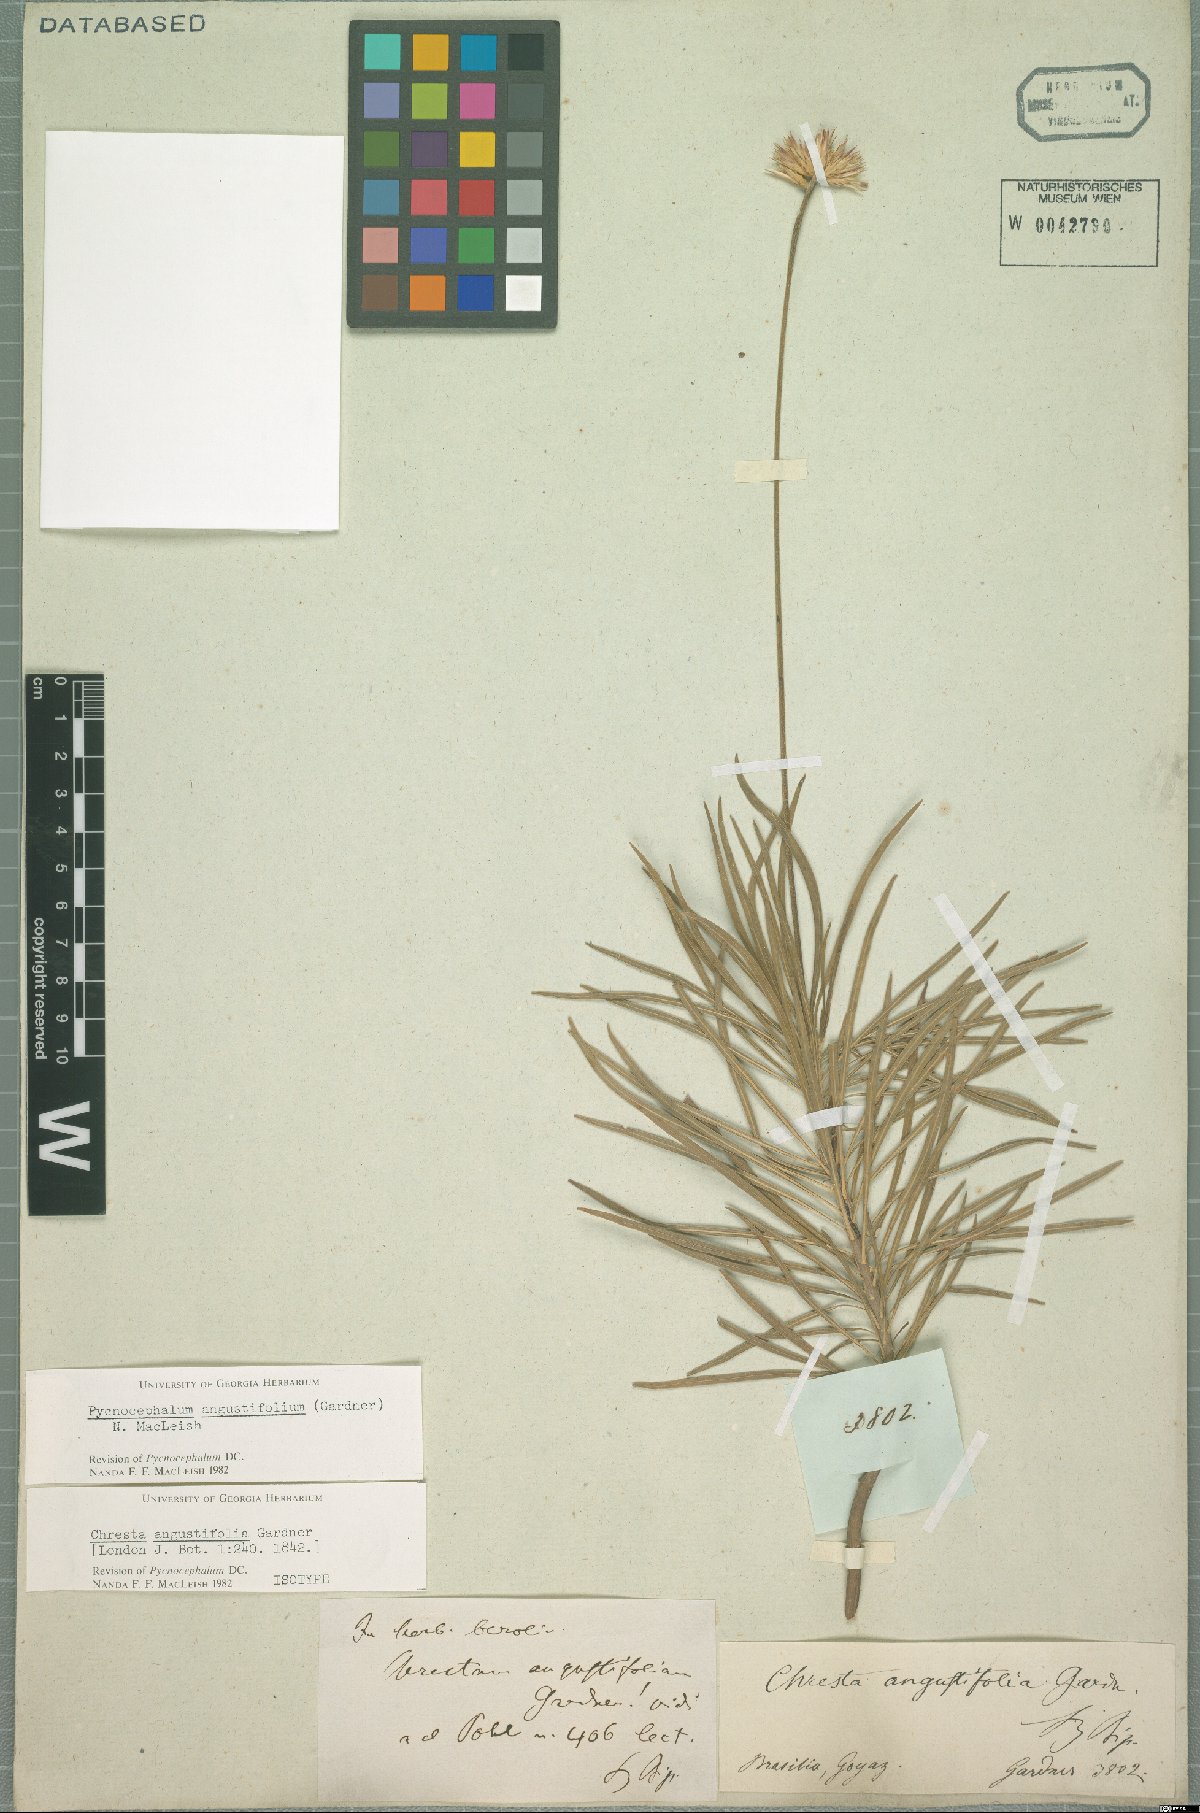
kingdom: Plantae
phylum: Tracheophyta
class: Magnoliopsida
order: Asterales
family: Asteraceae
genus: Chresta
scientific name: Chresta angustifolia
